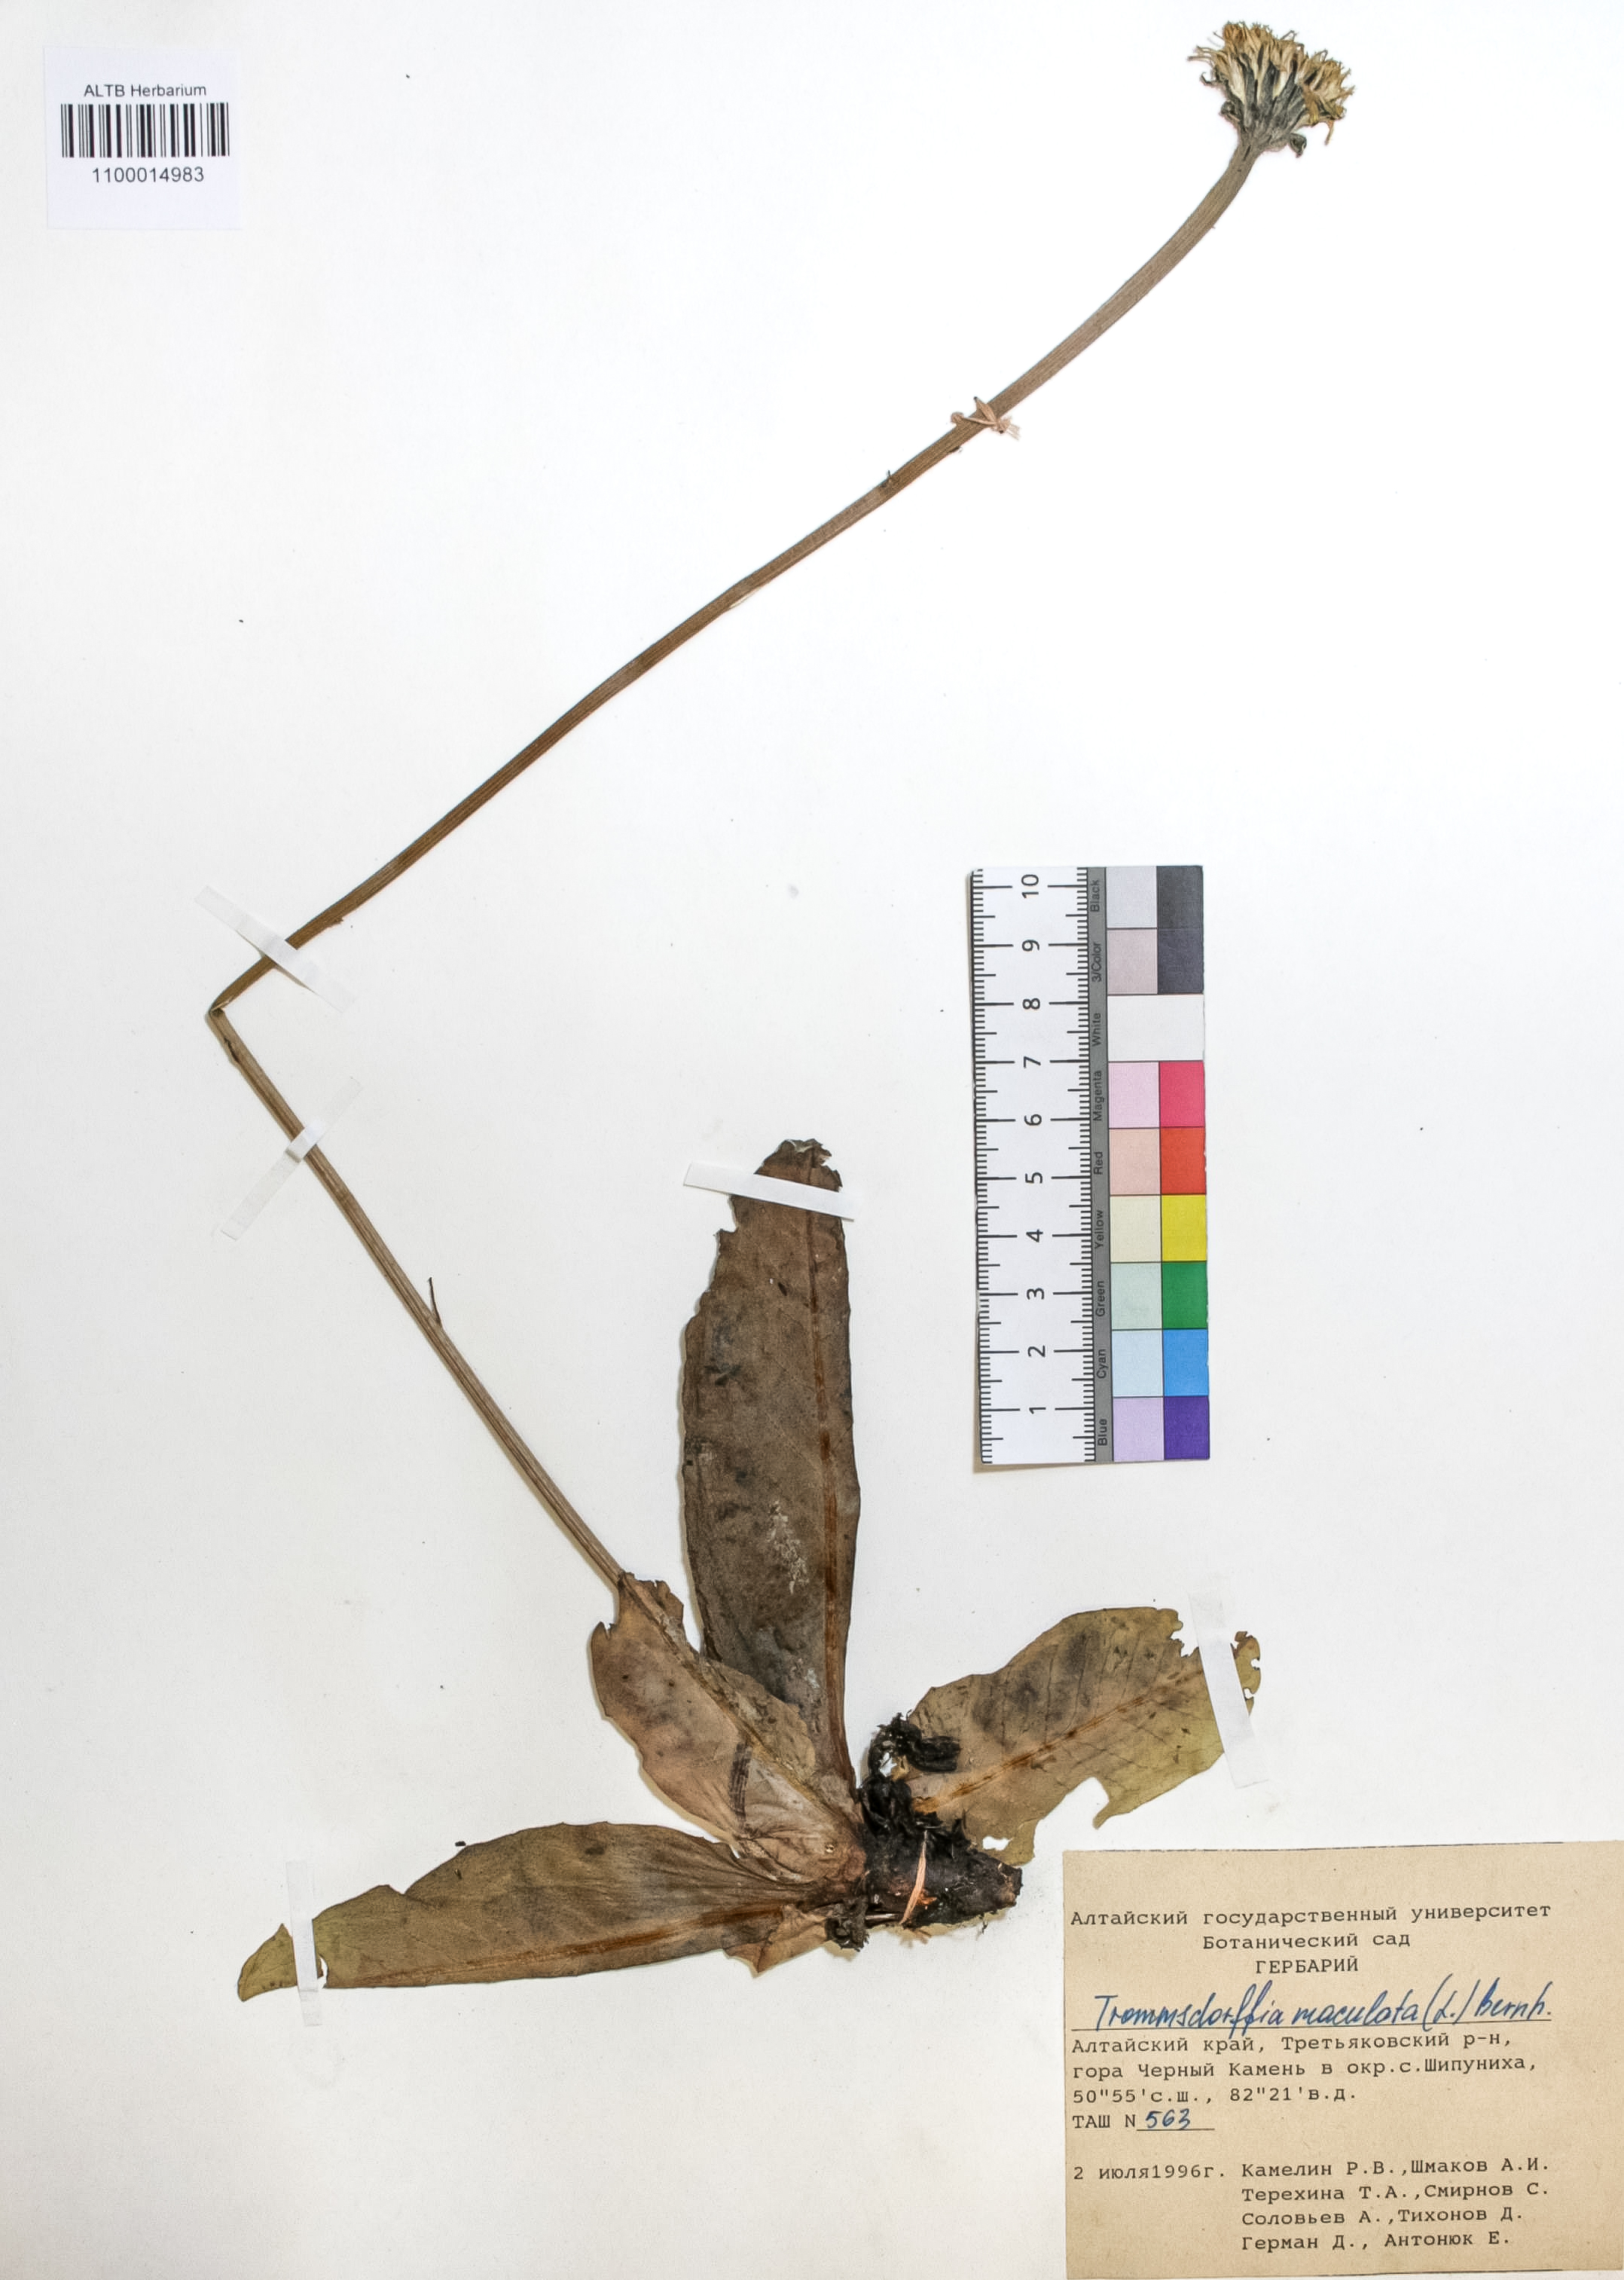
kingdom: Plantae
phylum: Tracheophyta
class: Magnoliopsida
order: Asterales
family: Asteraceae
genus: Trommsdorffia
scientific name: Trommsdorffia maculata
